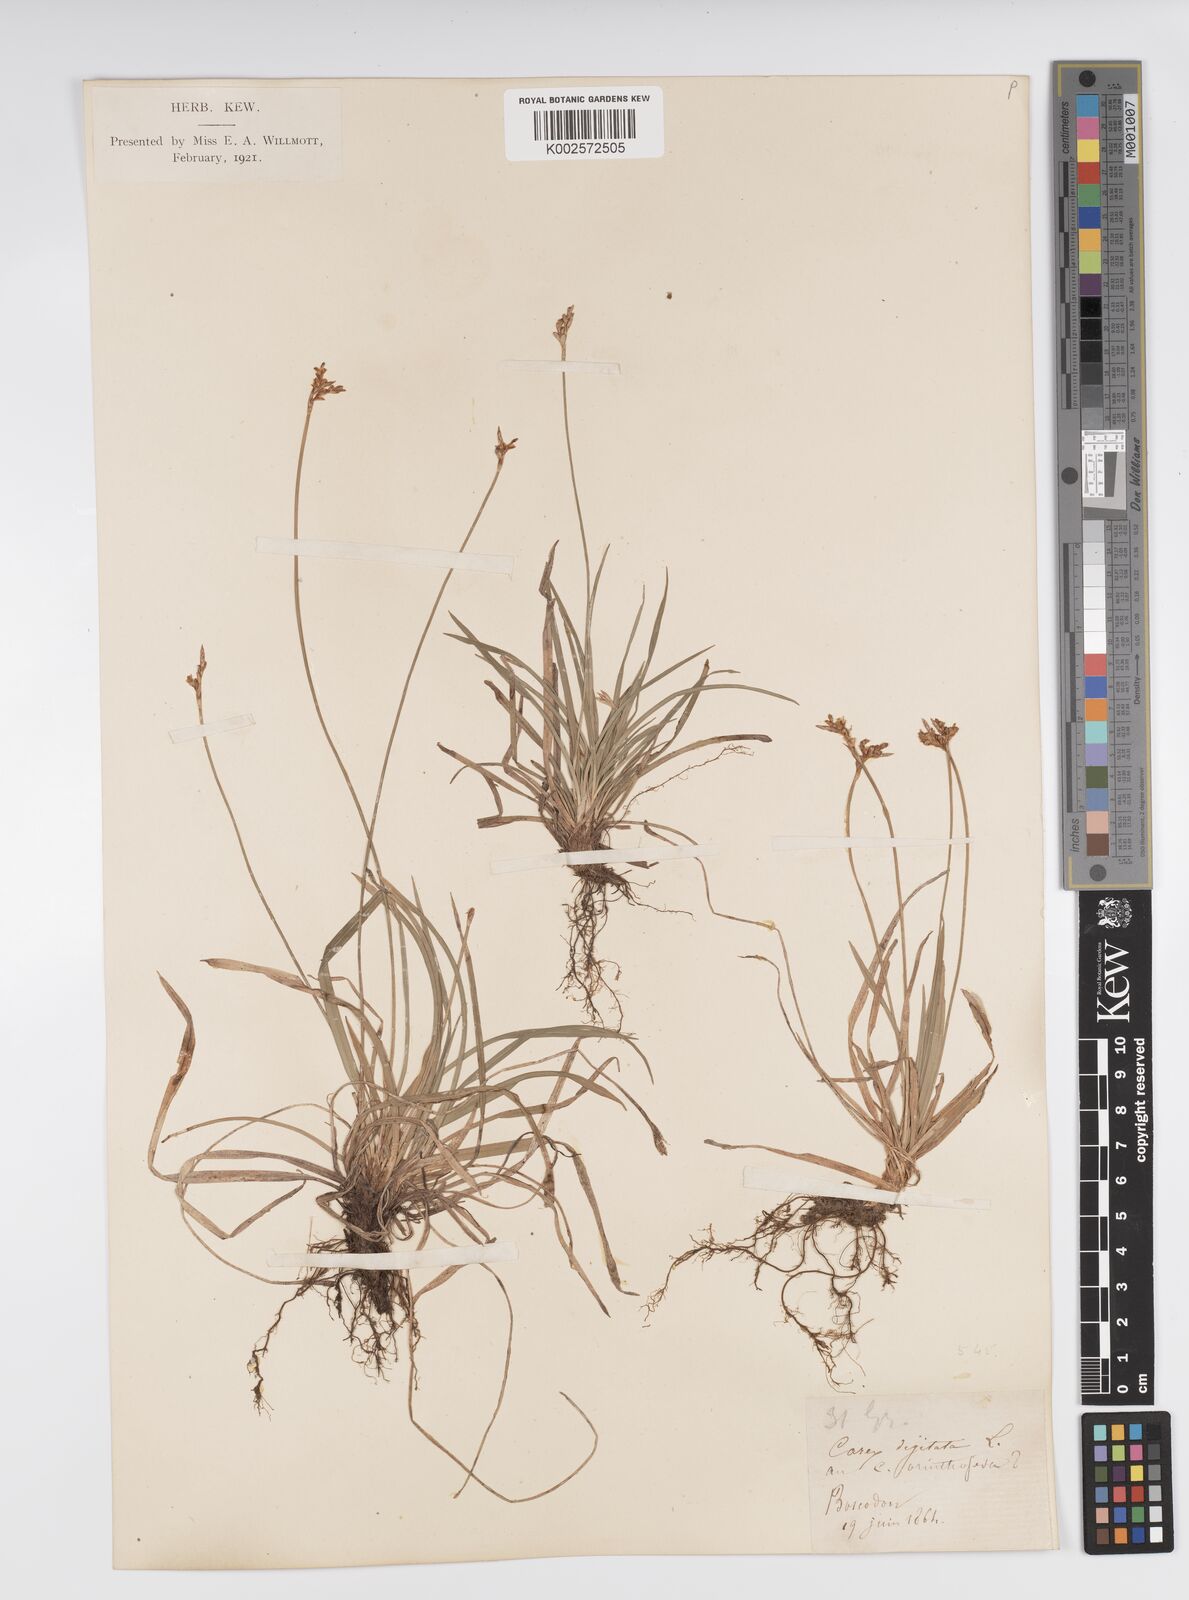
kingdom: Plantae
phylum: Tracheophyta
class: Liliopsida
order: Poales
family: Cyperaceae
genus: Carex
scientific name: Carex digitata
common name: Fingered sedge
